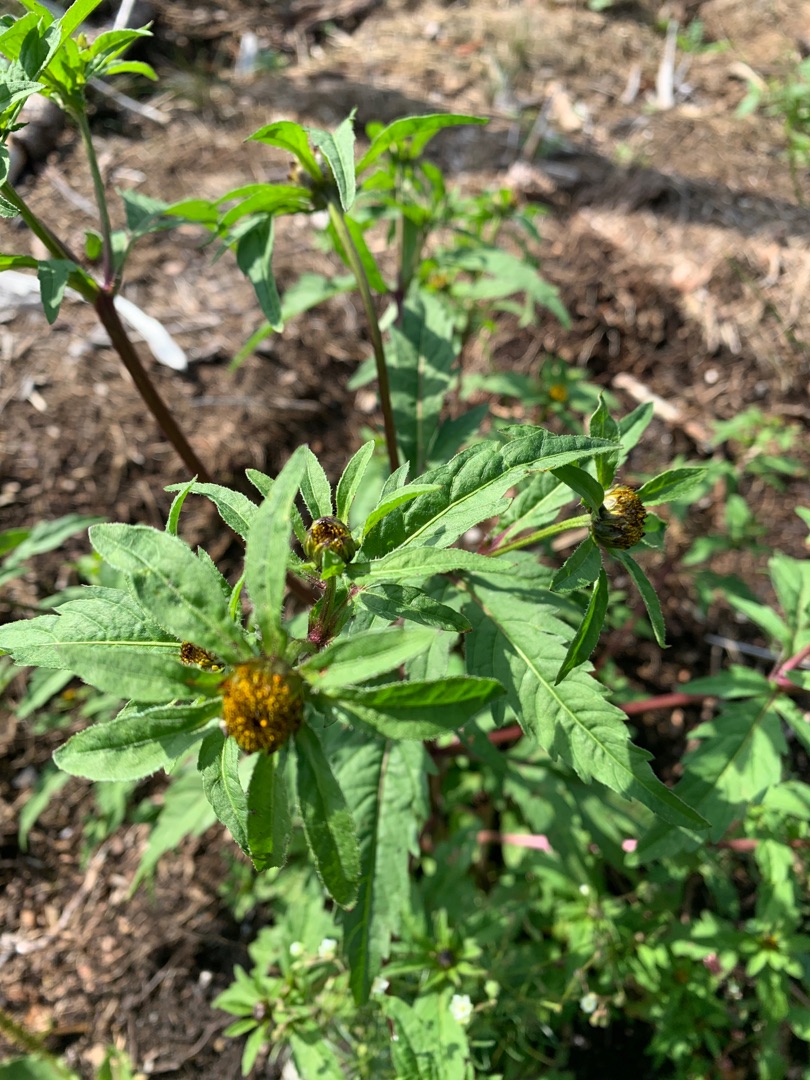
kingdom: Plantae
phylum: Tracheophyta
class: Magnoliopsida
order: Asterales
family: Asteraceae
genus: Bidens
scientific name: Bidens tripartita
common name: Fliget brøndsel
